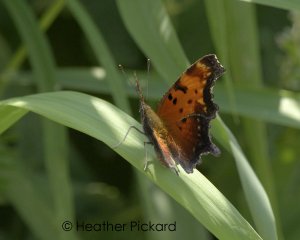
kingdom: Animalia
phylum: Arthropoda
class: Insecta
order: Lepidoptera
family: Nymphalidae
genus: Polygonia
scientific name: Polygonia progne
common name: Gray Comma
